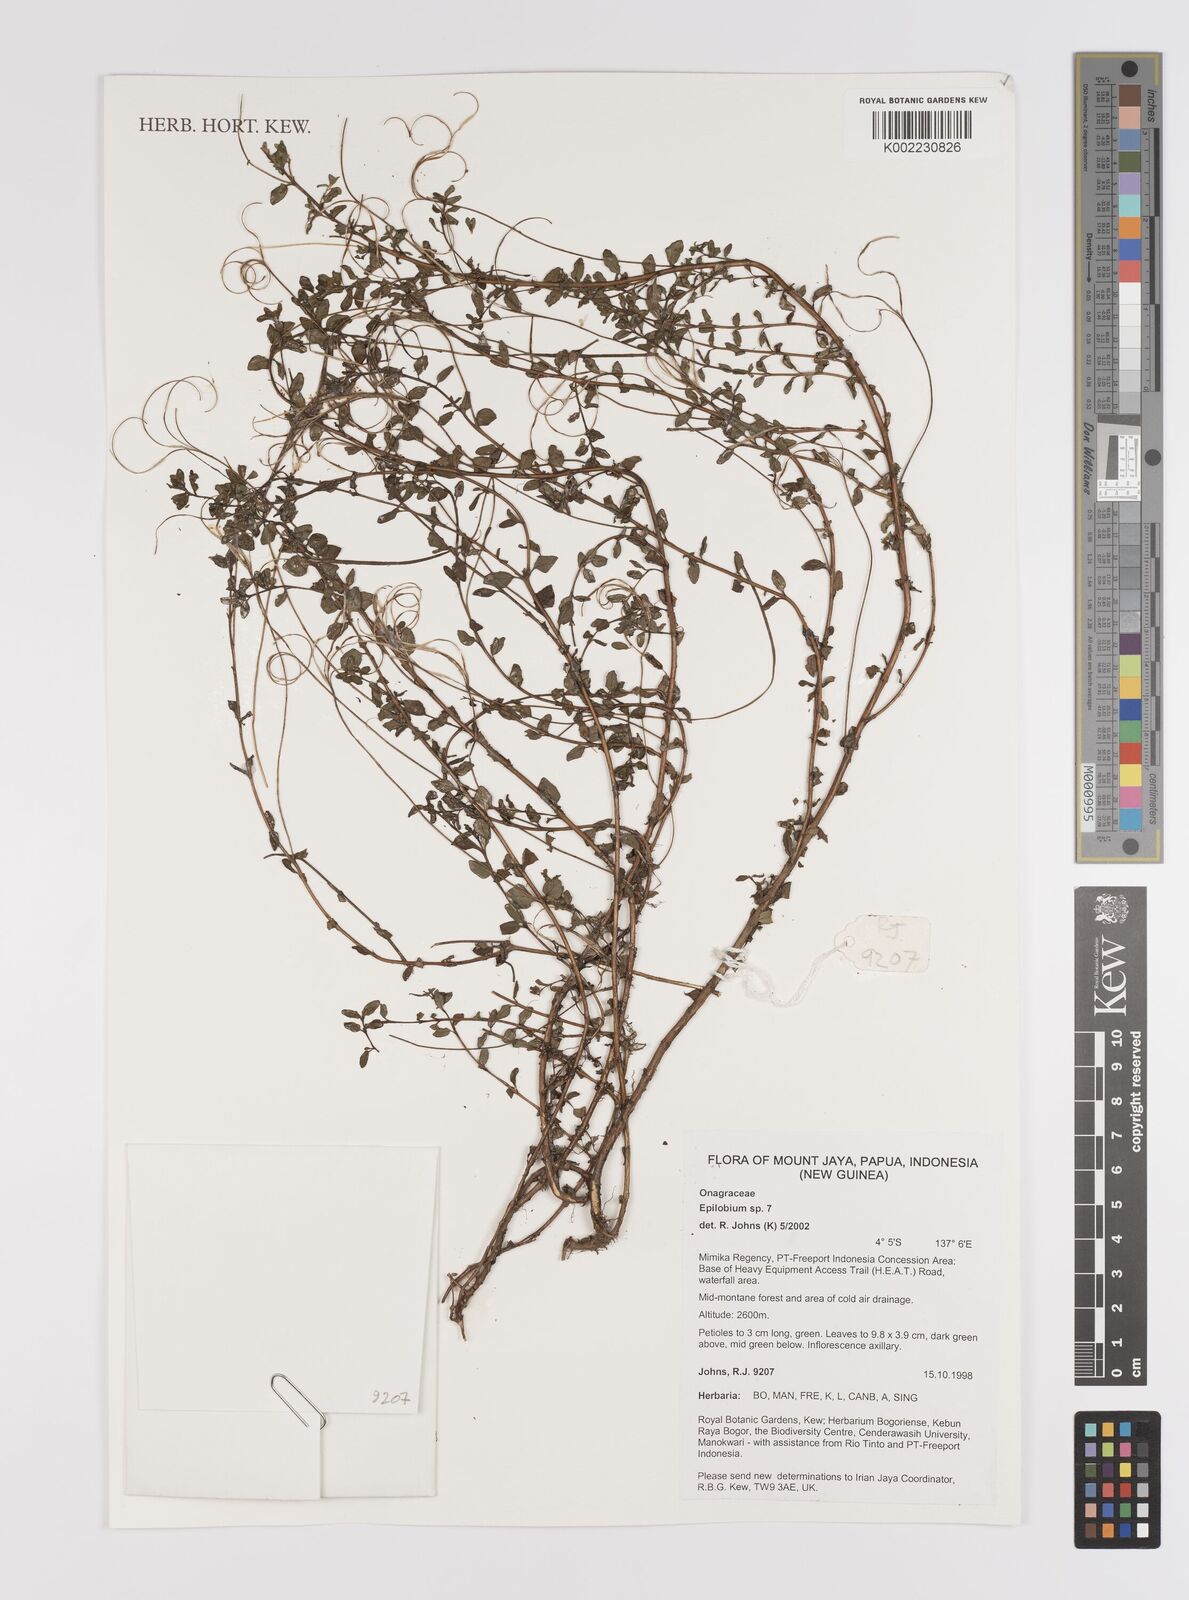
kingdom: Plantae
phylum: Tracheophyta
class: Magnoliopsida
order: Myrtales
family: Onagraceae
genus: Epilobium
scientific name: Epilobium
